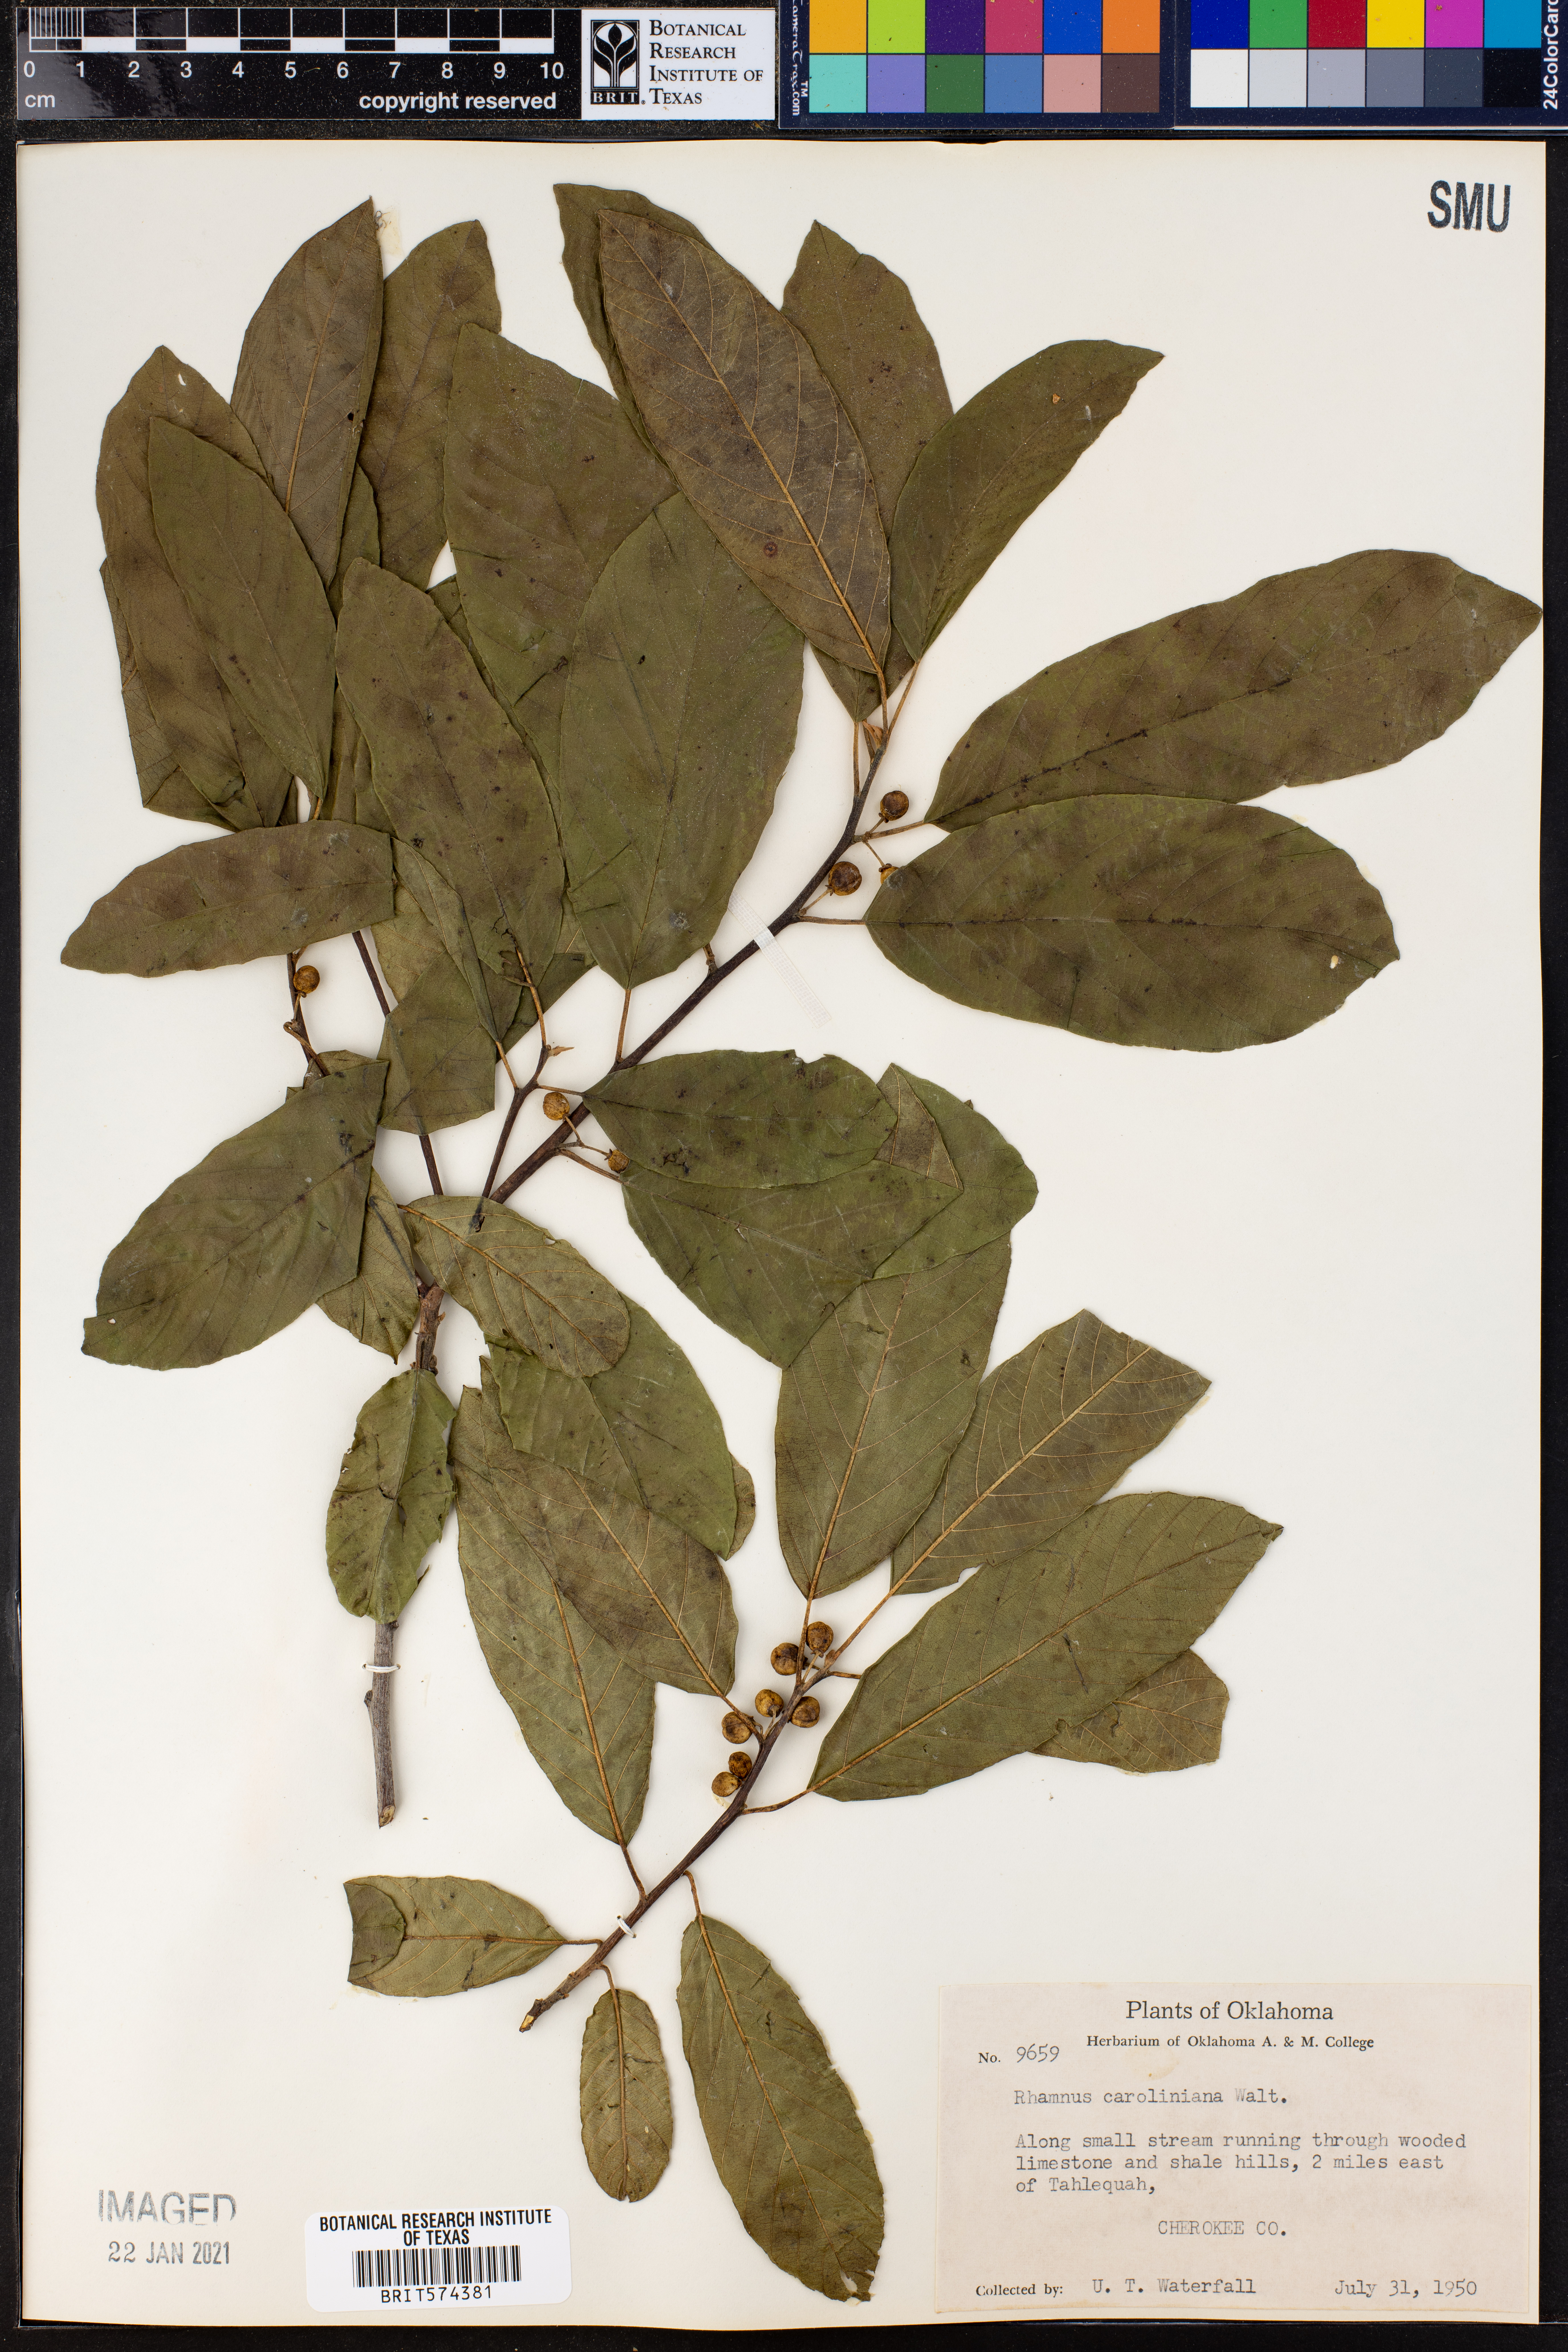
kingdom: Plantae
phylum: Tracheophyta
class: Magnoliopsida
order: Rosales
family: Rhamnaceae
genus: Frangula
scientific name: Frangula caroliniana
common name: Carolina buckthorn
